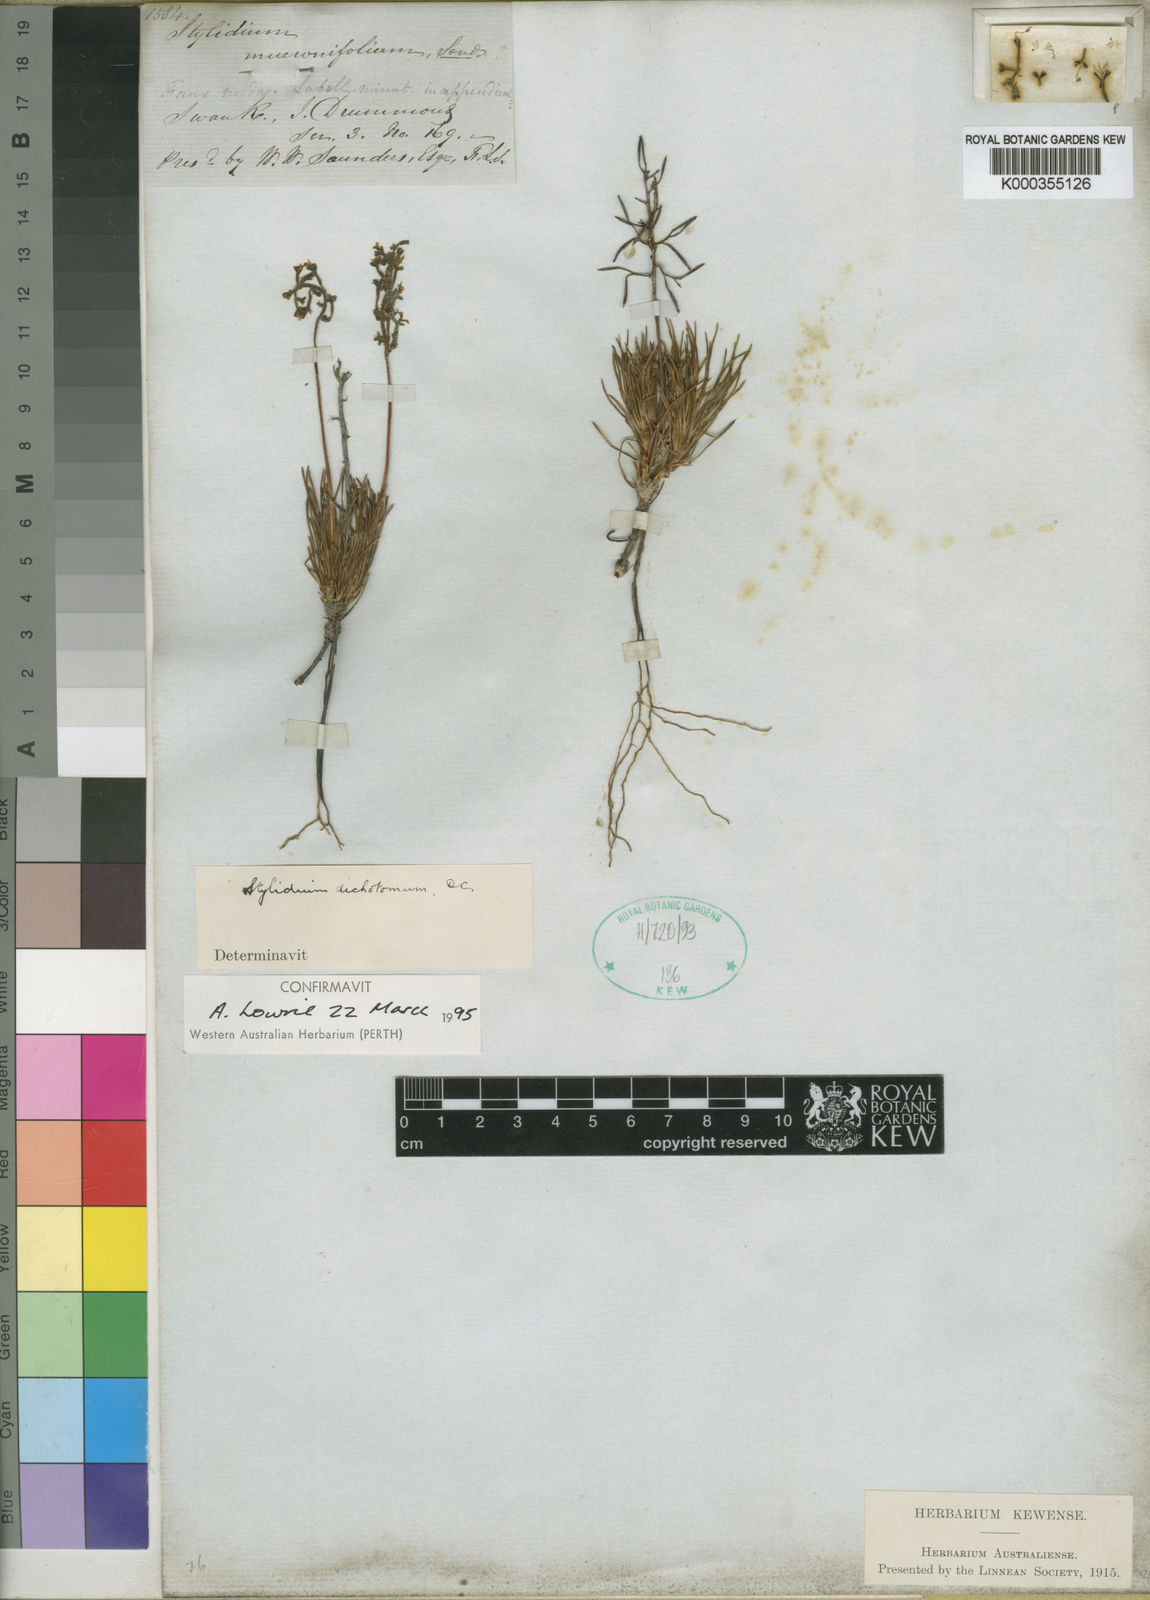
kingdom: Plantae
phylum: Tracheophyta
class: Magnoliopsida
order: Asterales
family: Stylidiaceae
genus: Stylidium
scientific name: Stylidium dichotomum
